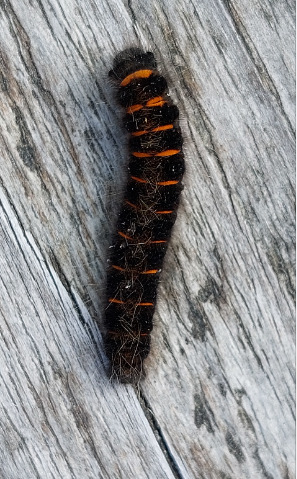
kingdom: Animalia
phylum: Arthropoda
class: Insecta
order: Lepidoptera
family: Lasiocampidae
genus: Macrothylacia
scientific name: Macrothylacia rubi
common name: Brombærspinder
